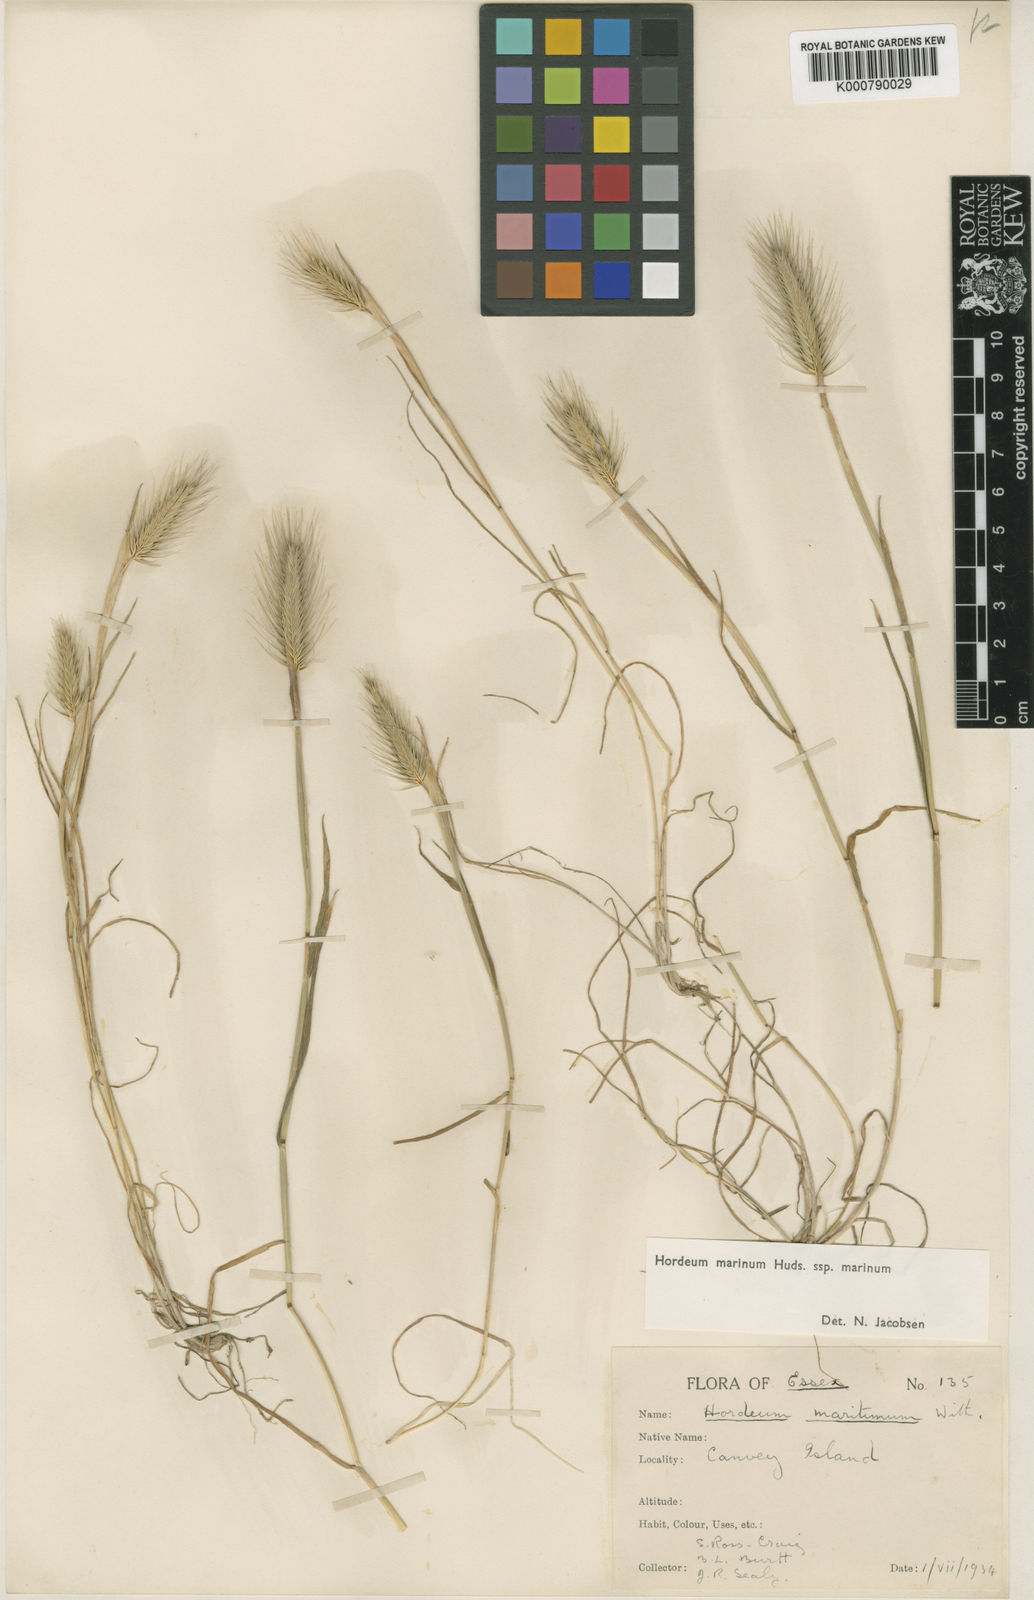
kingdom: Plantae
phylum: Tracheophyta
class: Liliopsida
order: Poales
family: Poaceae
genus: Hordeum
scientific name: Hordeum marinum
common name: Sea barley
